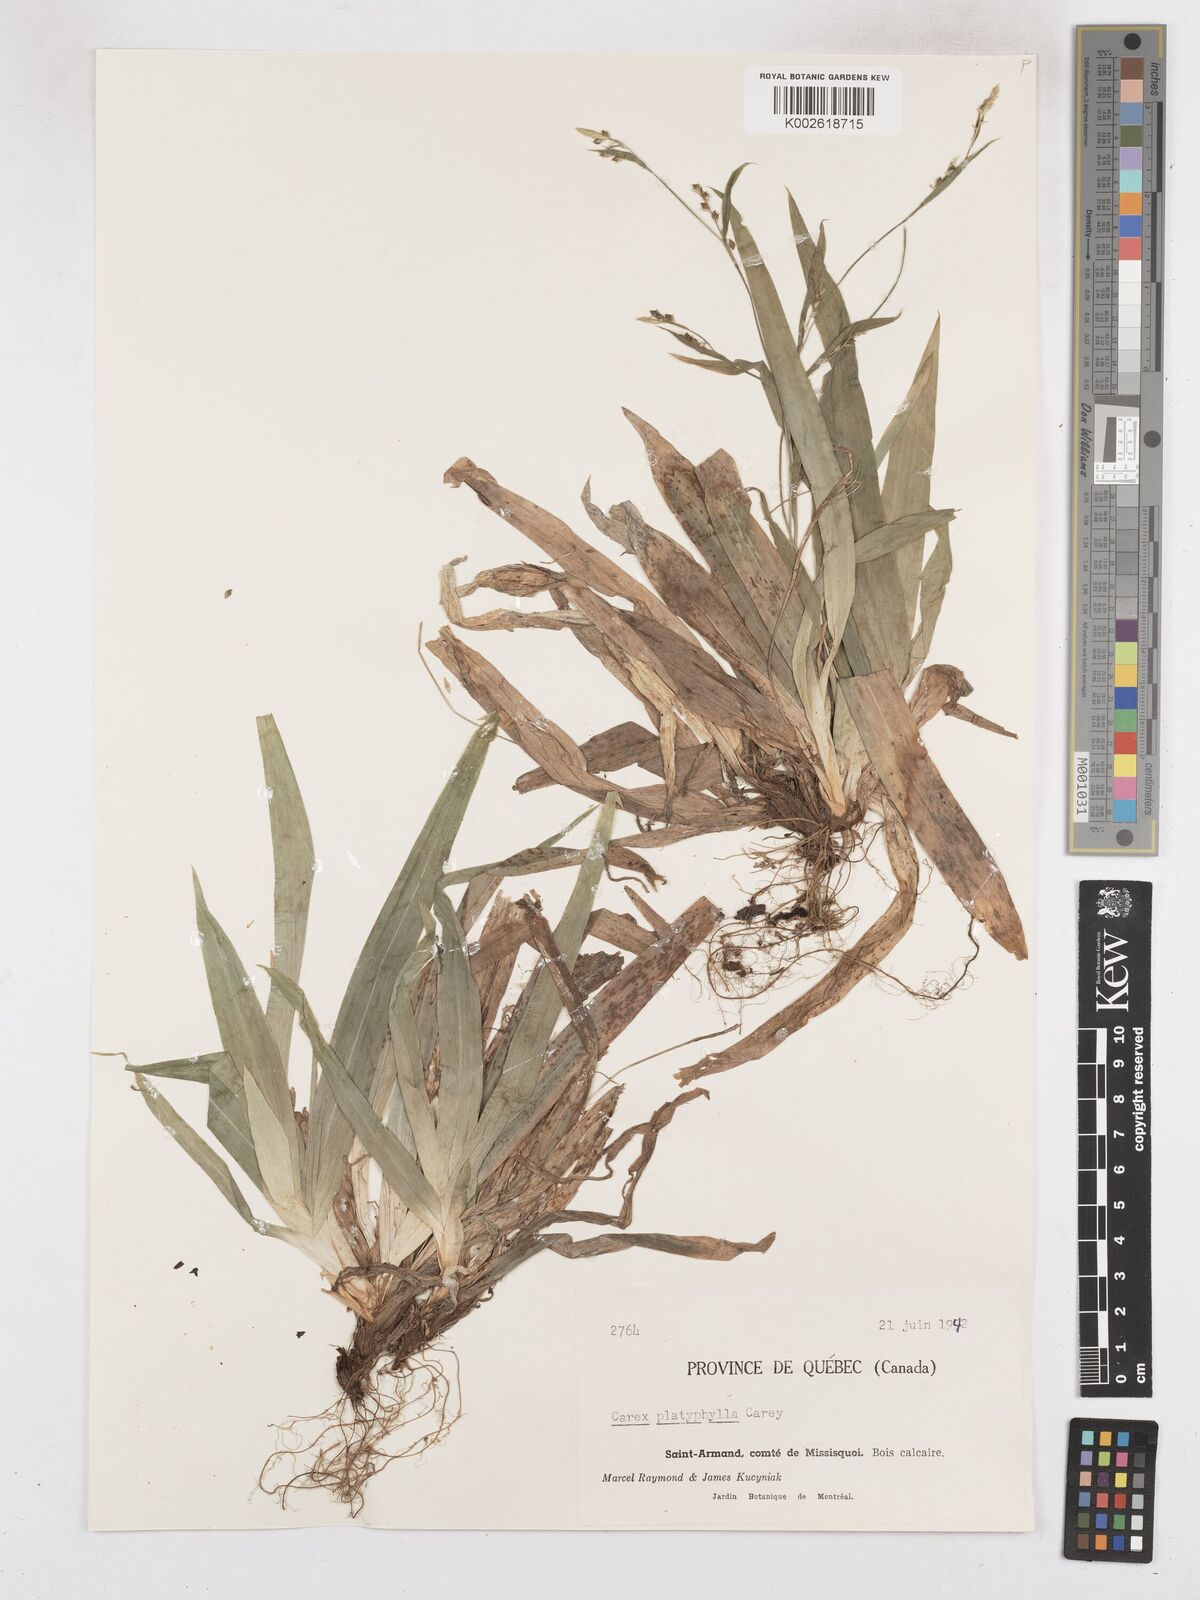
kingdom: Plantae
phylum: Tracheophyta
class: Liliopsida
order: Poales
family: Cyperaceae
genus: Carex
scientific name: Carex platyphylla
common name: Broad-leaved sedge
